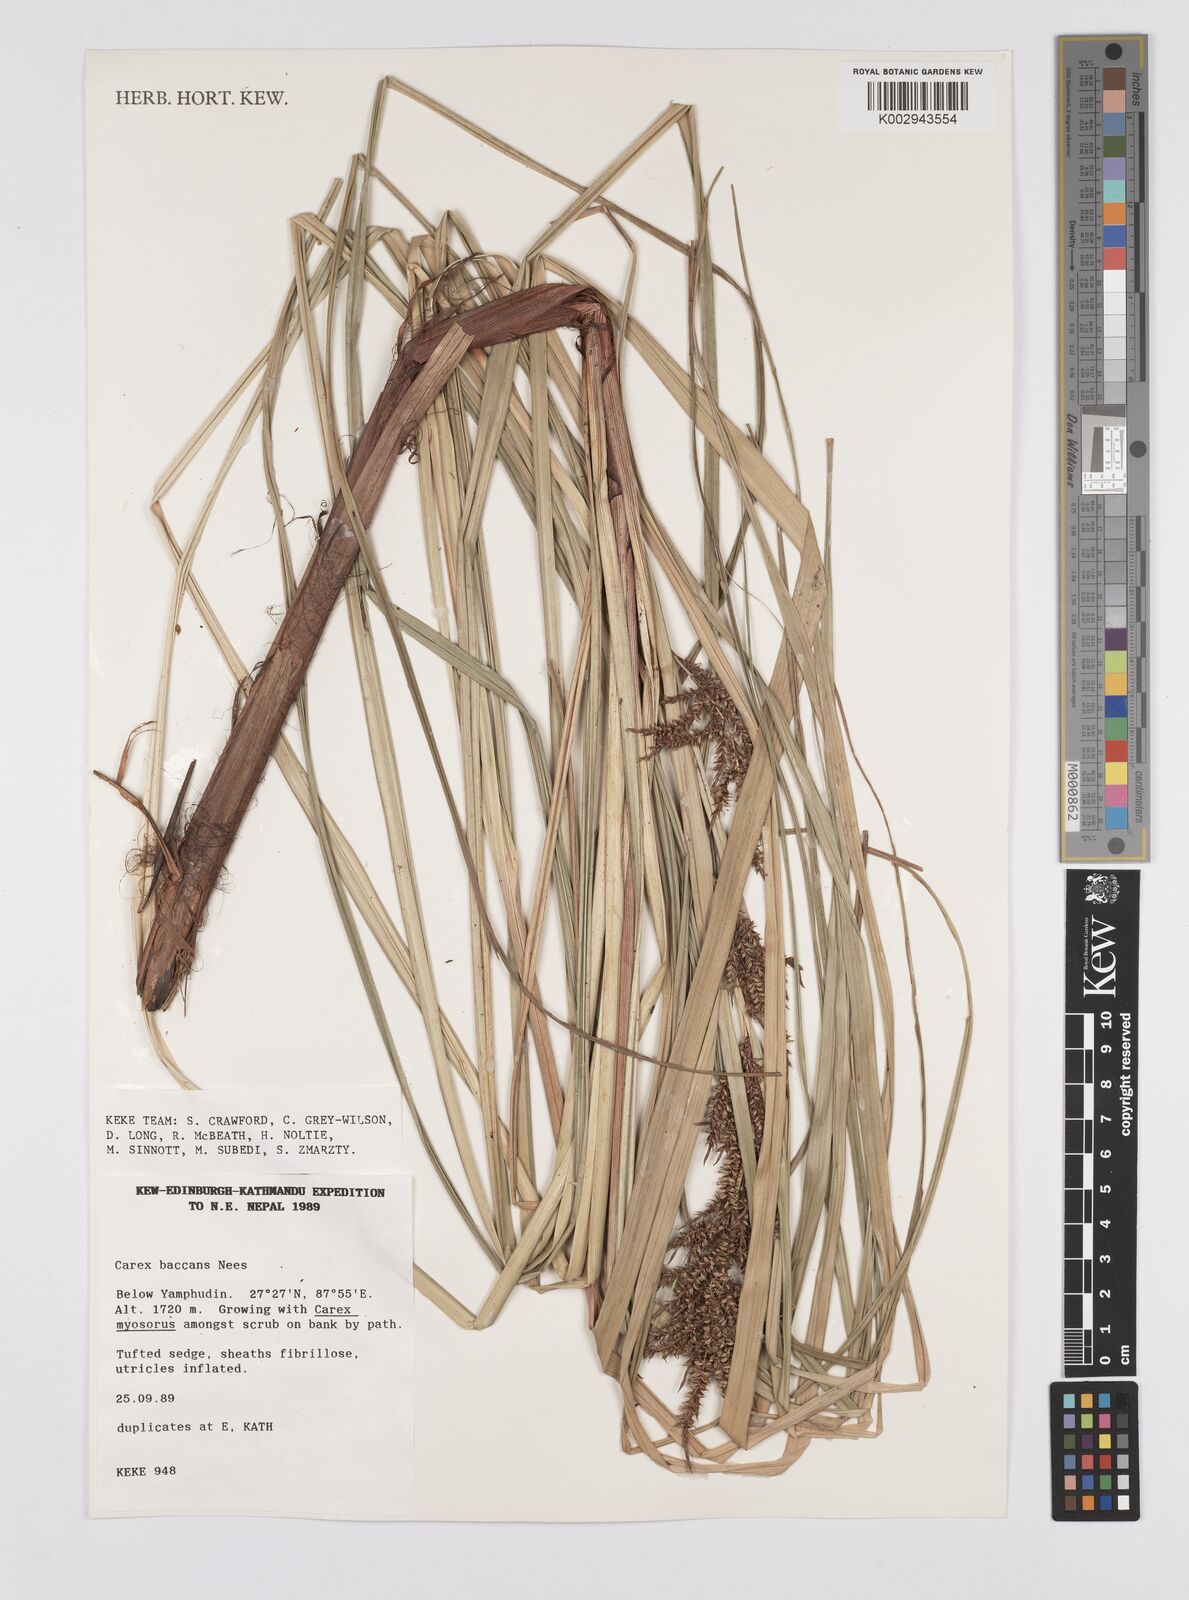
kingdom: Plantae
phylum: Tracheophyta
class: Liliopsida
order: Poales
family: Cyperaceae
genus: Carex
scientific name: Carex baccans
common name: Crimson seeded sedge
